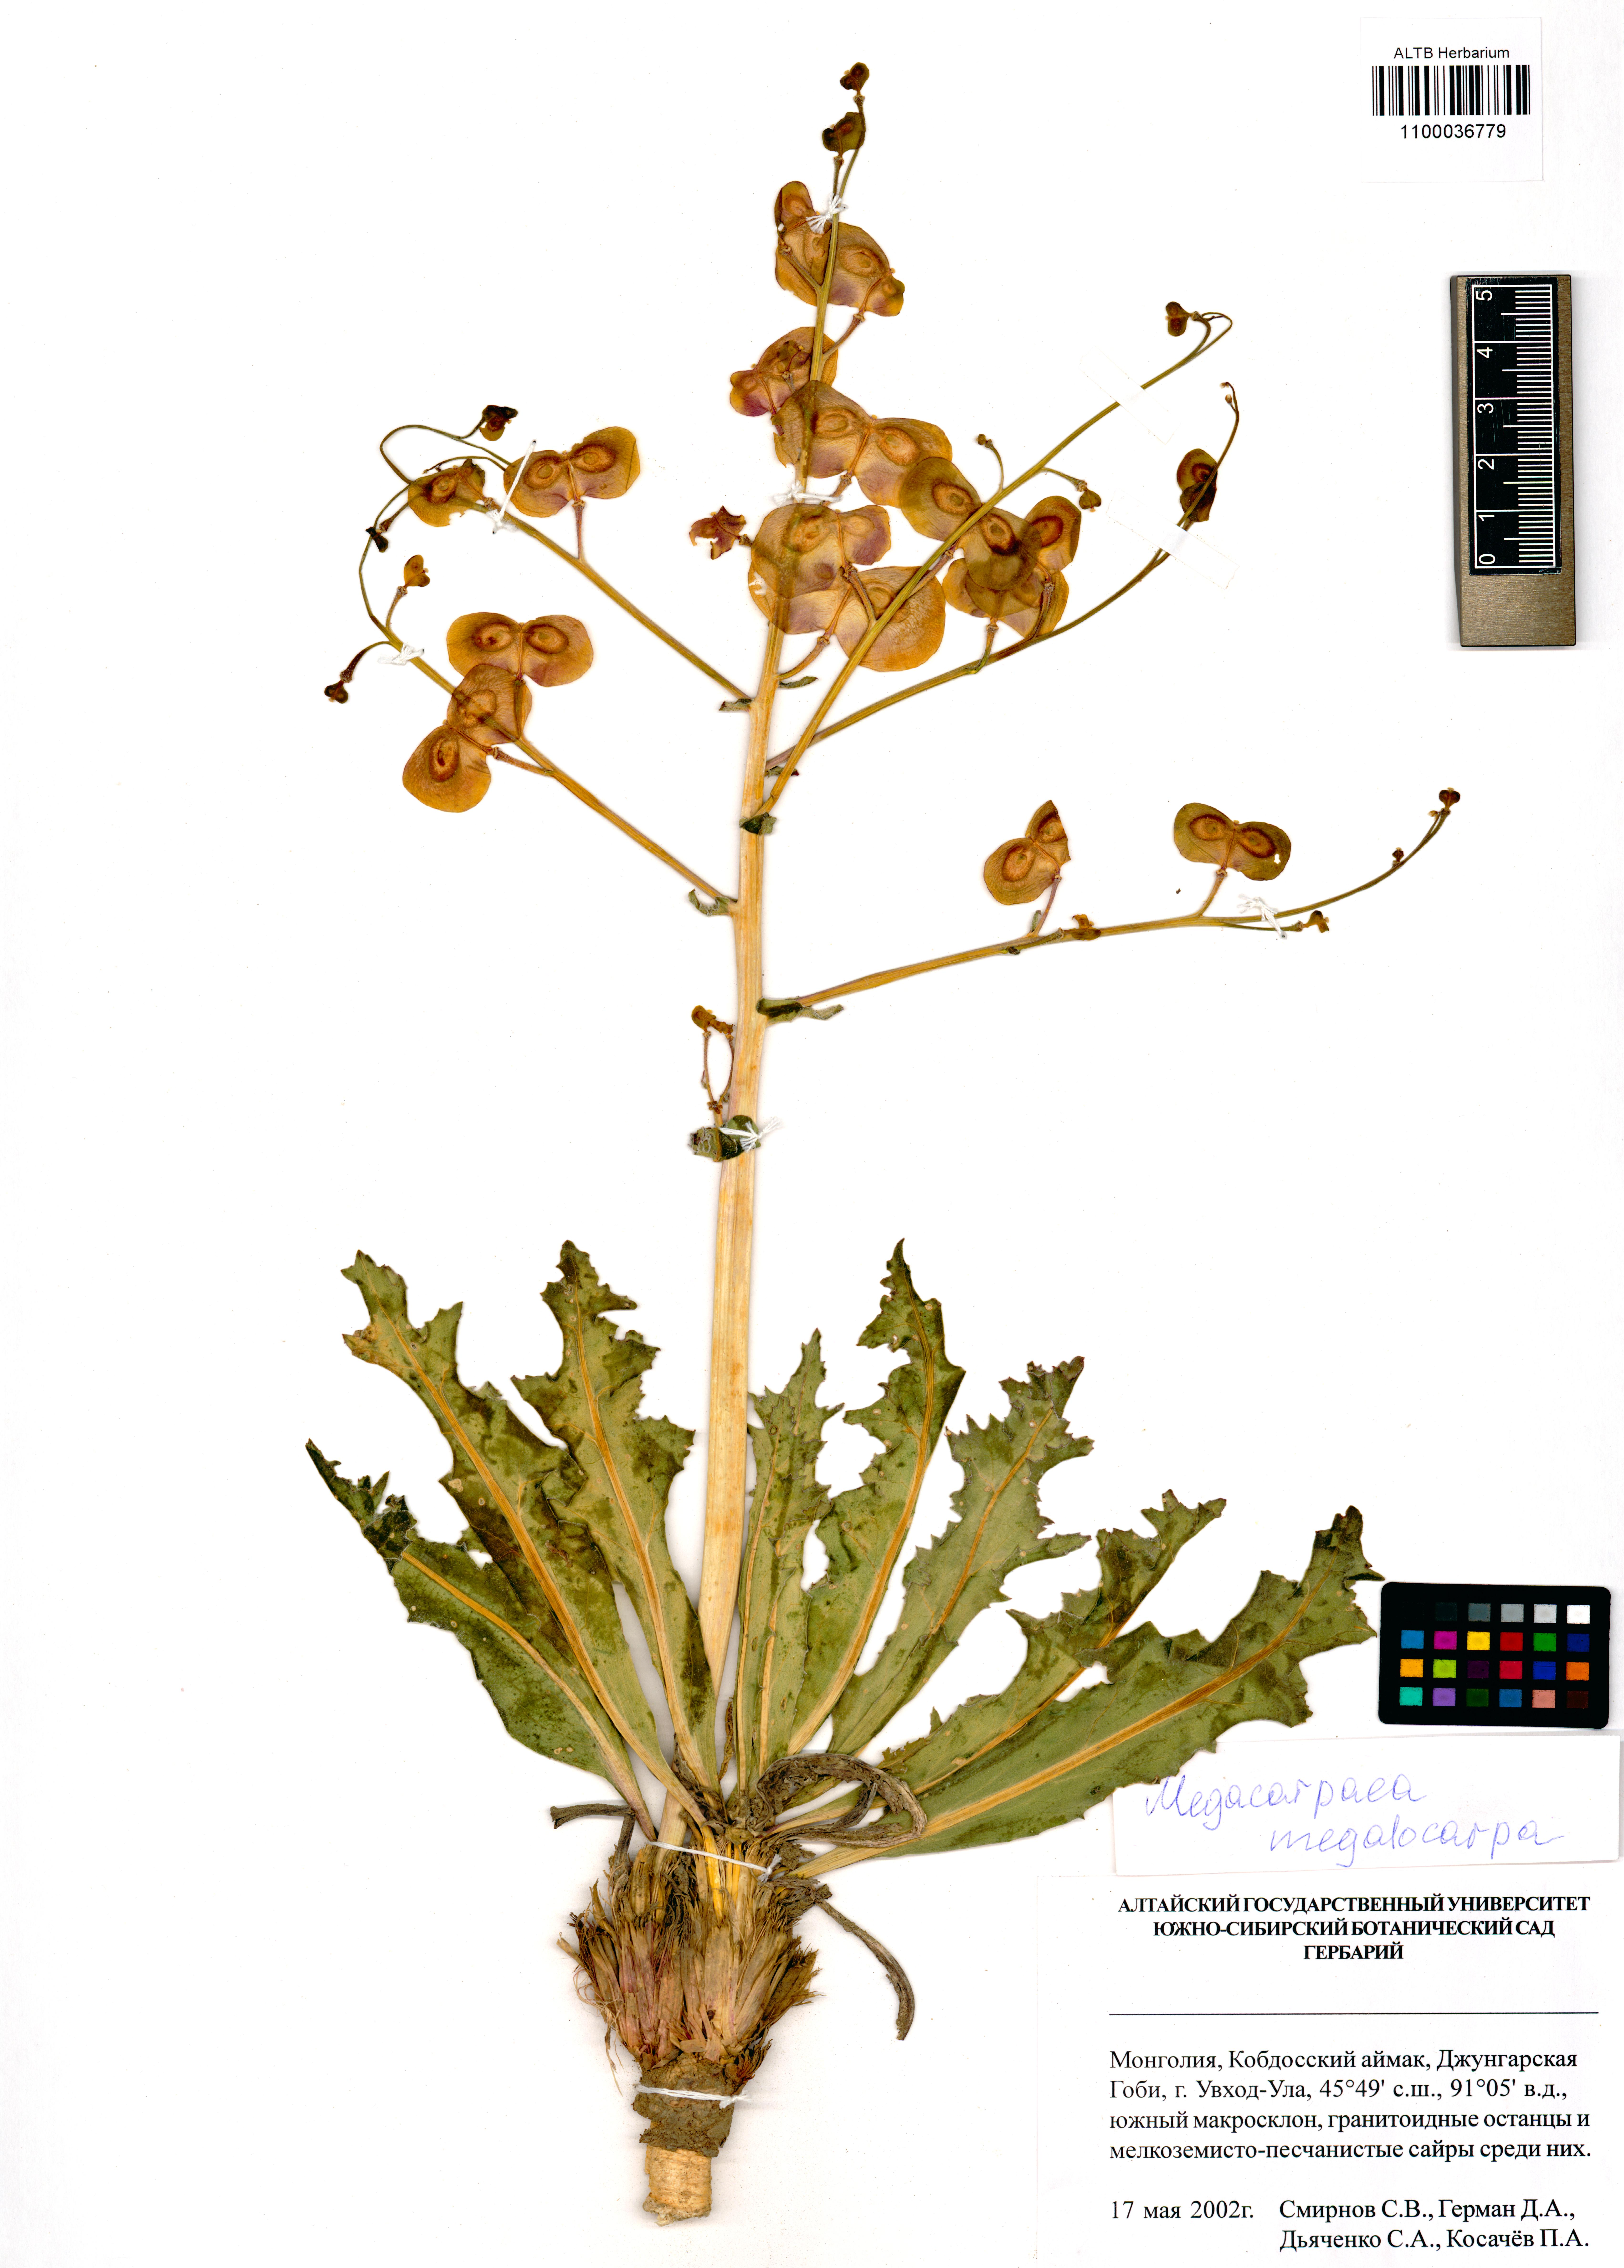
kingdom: Plantae
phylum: Tracheophyta
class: Magnoliopsida
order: Brassicales
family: Brassicaceae
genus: Megacarpaea
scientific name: Megacarpaea megalocarpa
